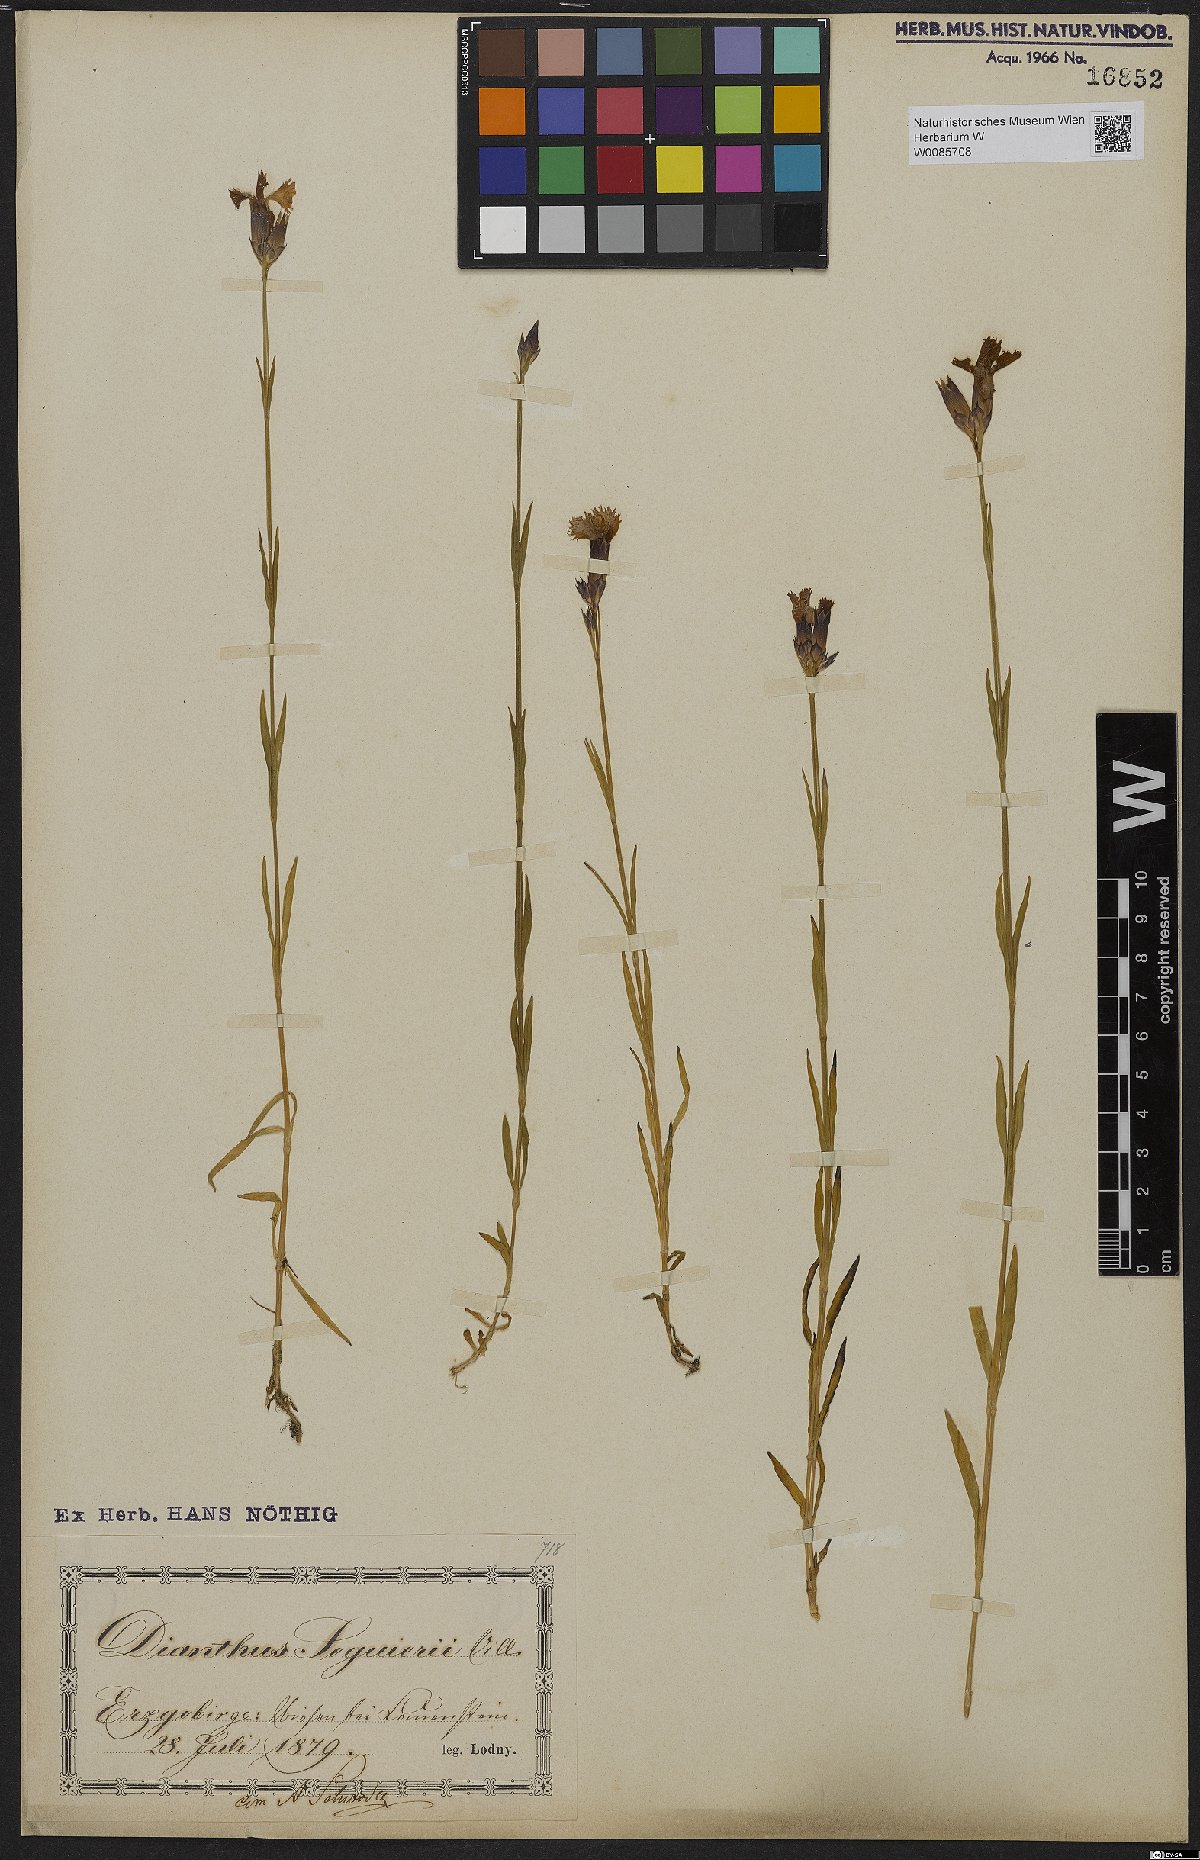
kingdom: Plantae
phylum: Tracheophyta
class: Magnoliopsida
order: Caryophyllales
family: Caryophyllaceae
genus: Dianthus
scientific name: Dianthus seguieri
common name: Ragged pink
